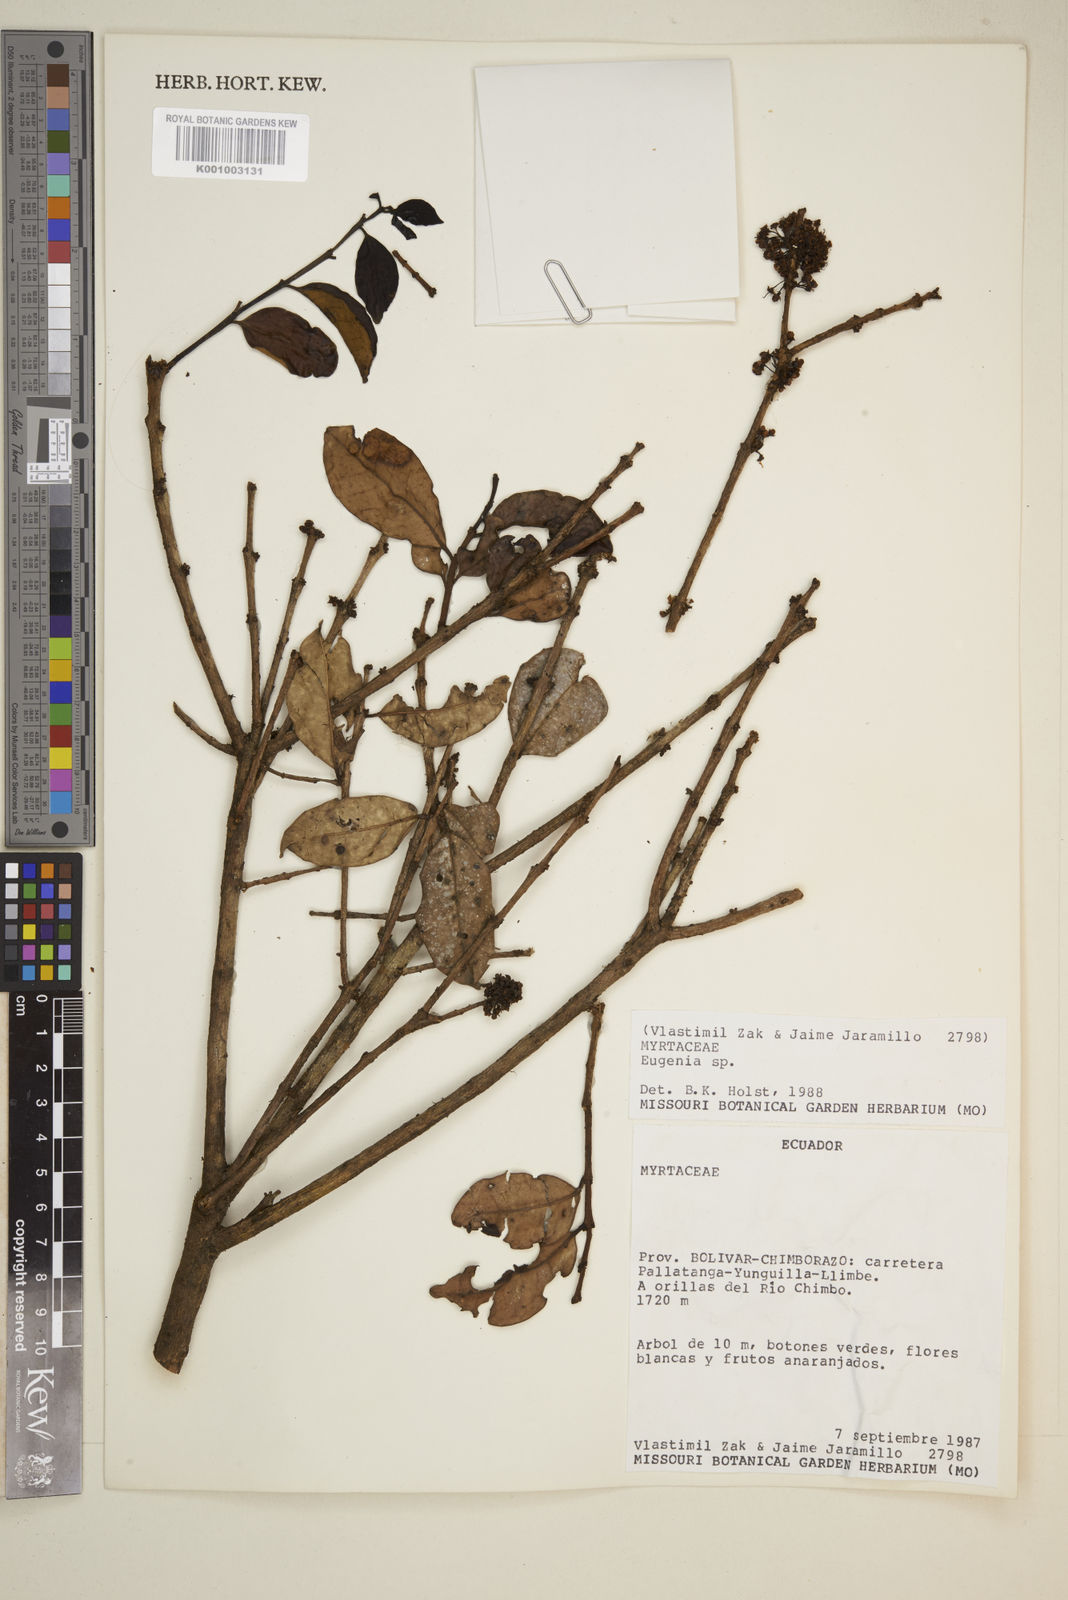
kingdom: Plantae
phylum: Tracheophyta
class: Magnoliopsida
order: Myrtales
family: Myrtaceae
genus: Eugenia
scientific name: Eugenia
